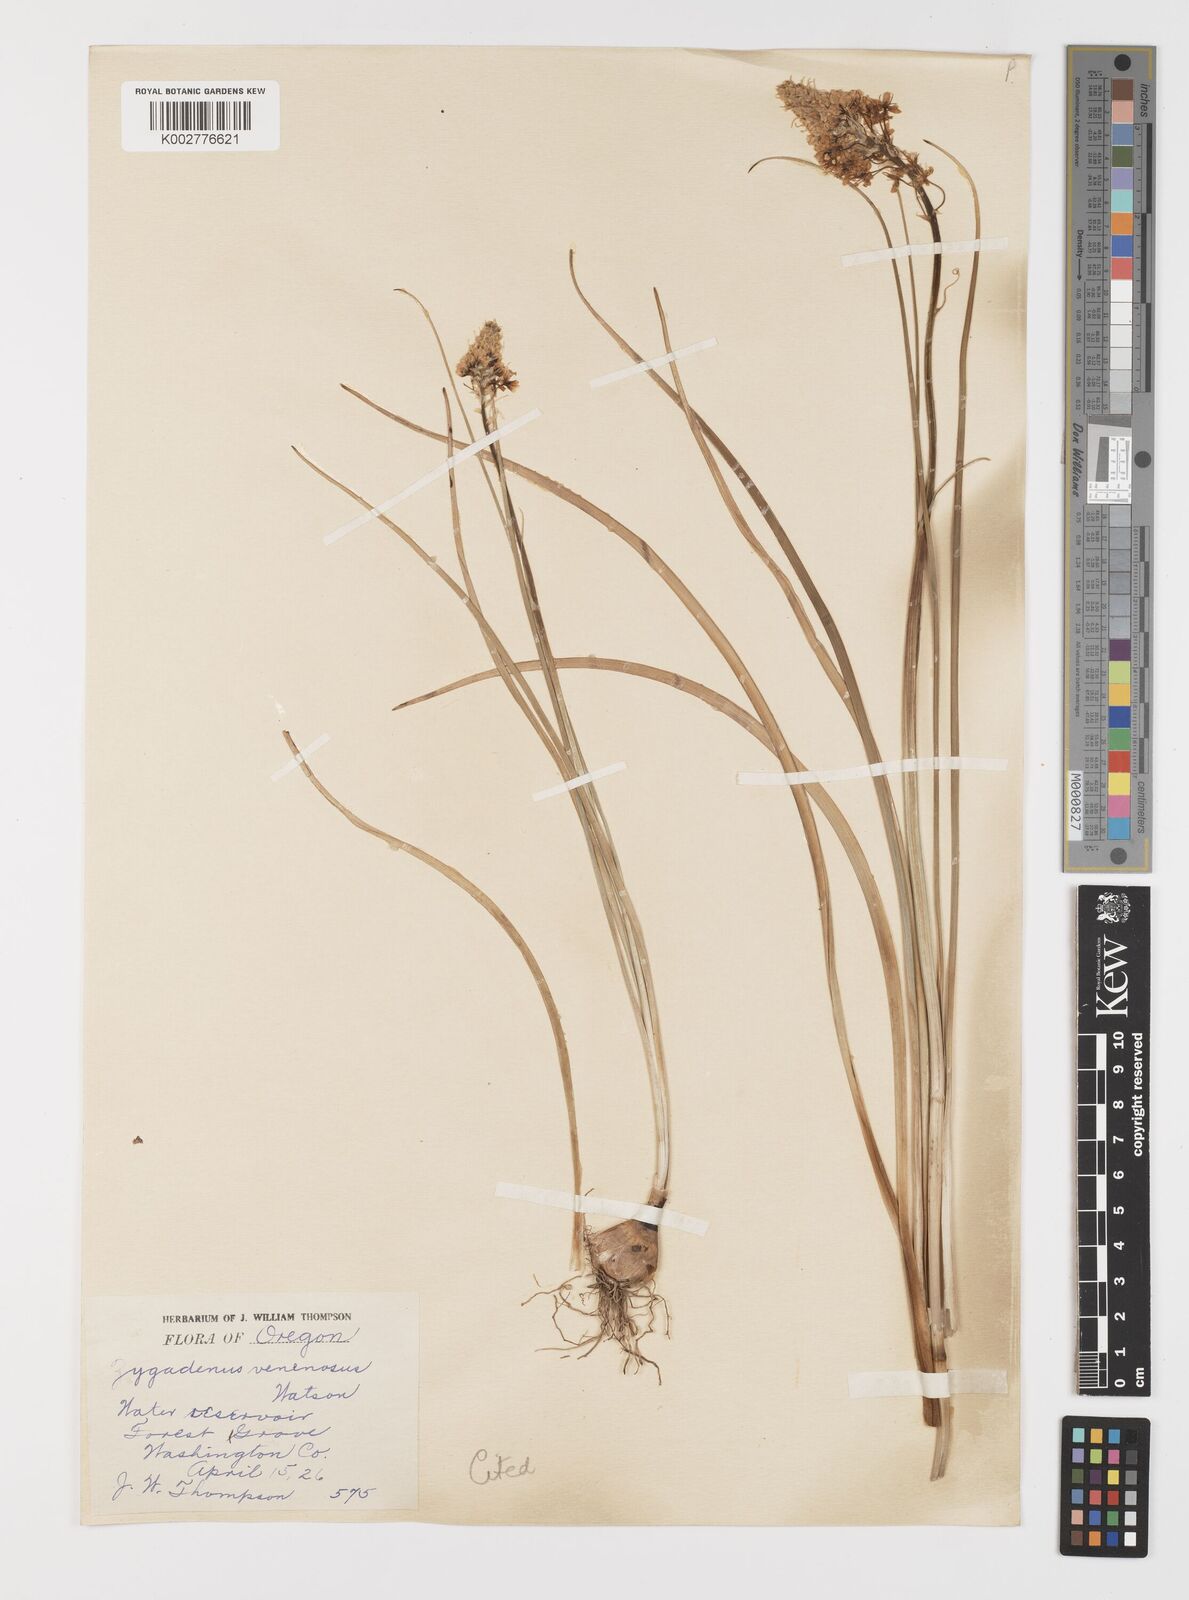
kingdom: Plantae
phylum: Tracheophyta
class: Liliopsida
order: Liliales
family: Melanthiaceae
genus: Toxicoscordion
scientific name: Toxicoscordion venenosum
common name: Meadow death camas
